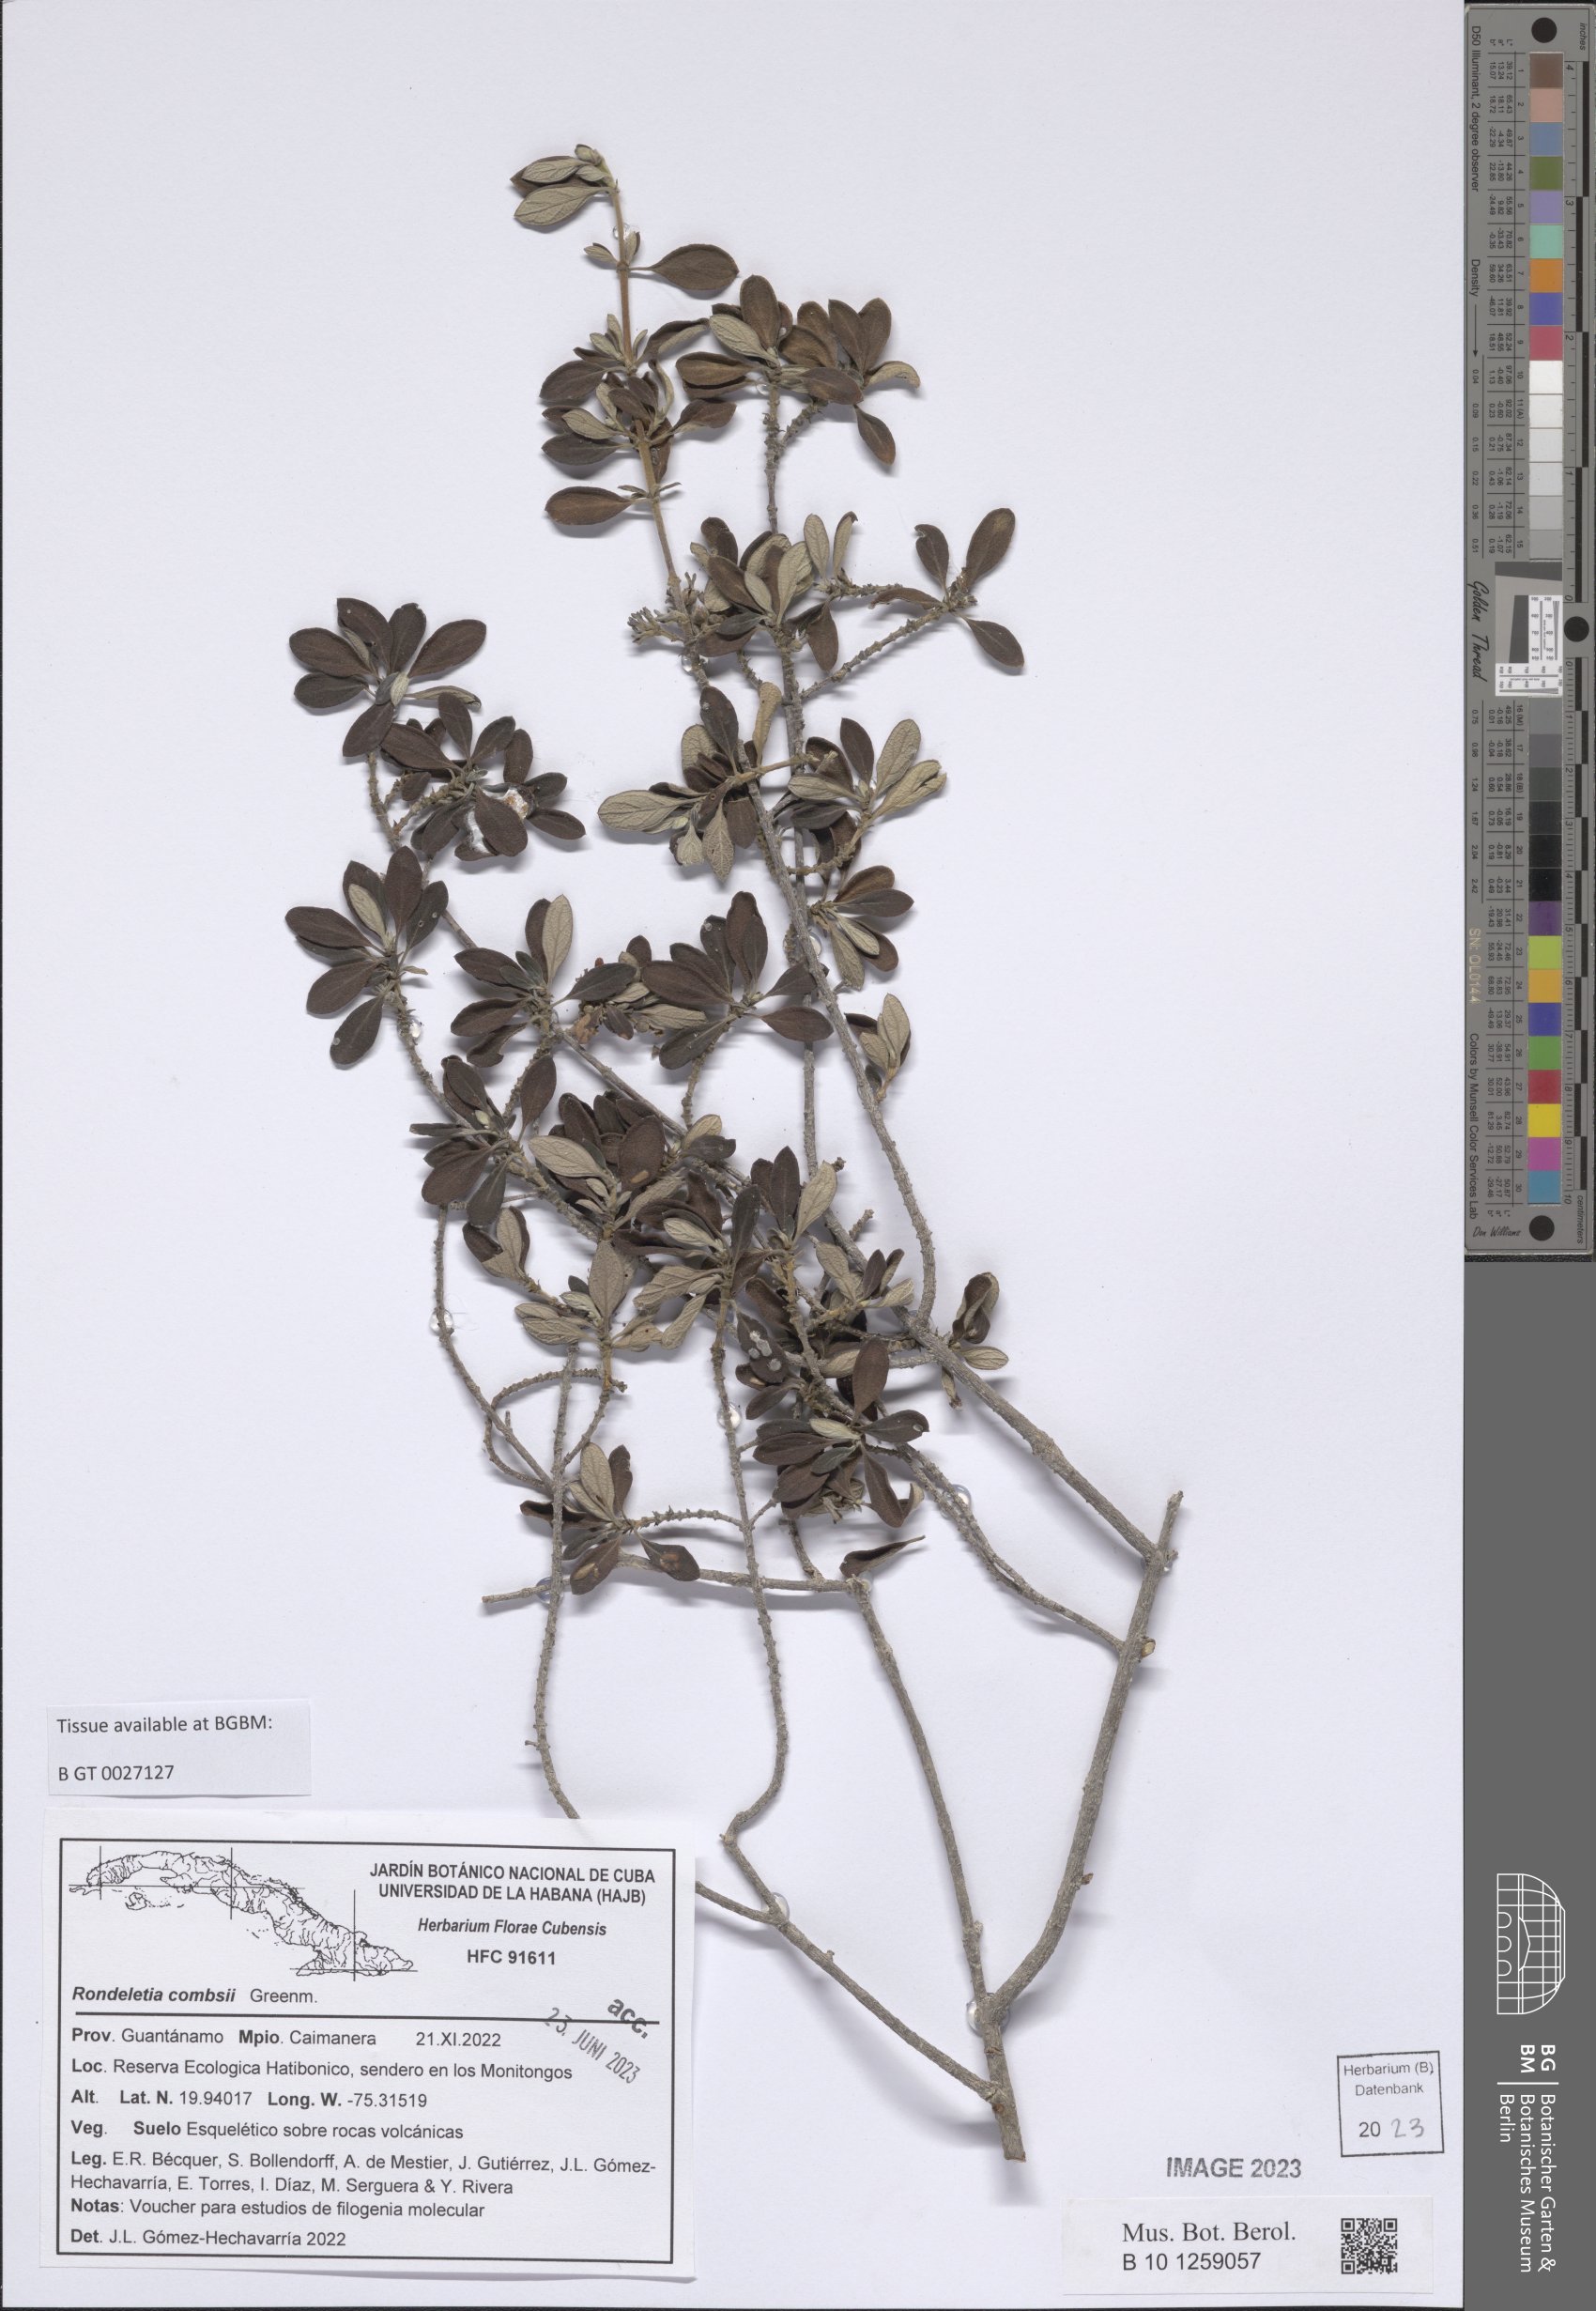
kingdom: Plantae
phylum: Tracheophyta
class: Magnoliopsida
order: Gentianales
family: Rubiaceae
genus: Rondeletia
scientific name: Rondeletia combsii
